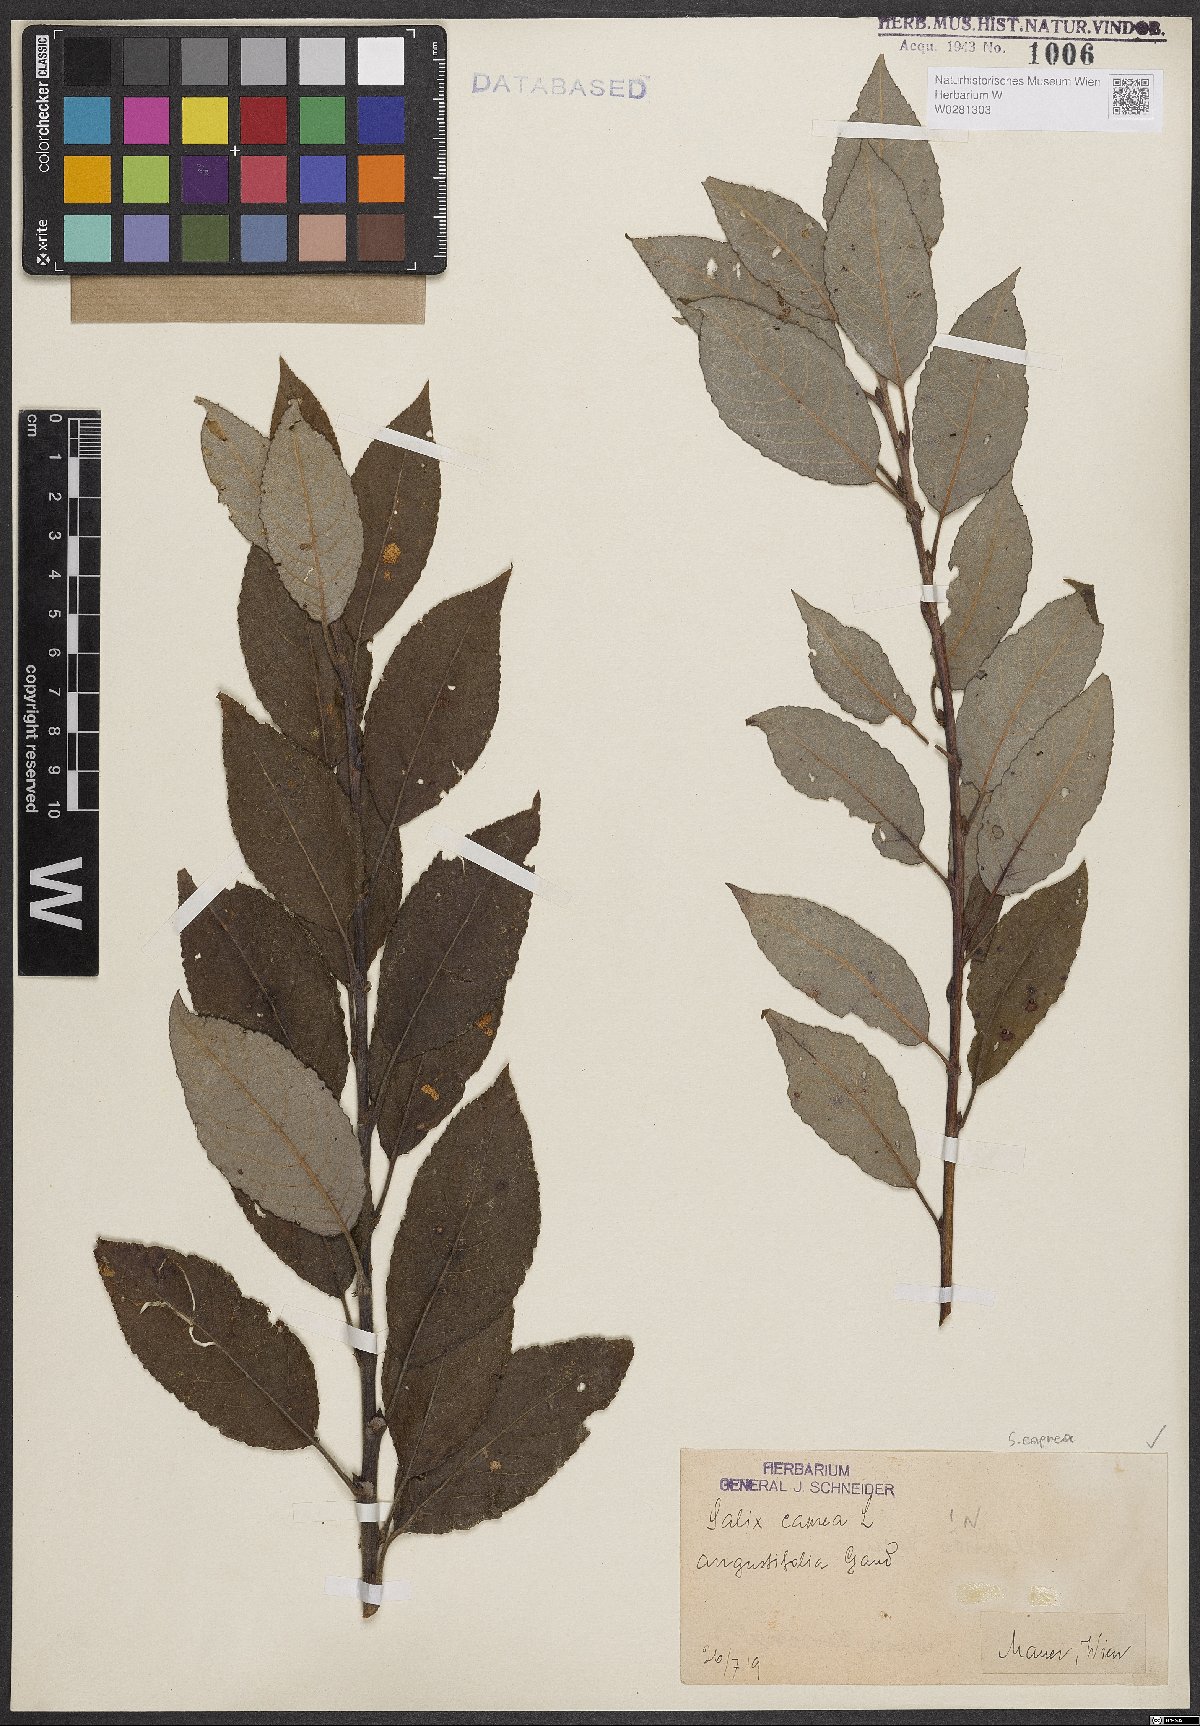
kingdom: Plantae
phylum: Tracheophyta
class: Magnoliopsida
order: Malpighiales
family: Salicaceae
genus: Salix
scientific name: Salix caprea
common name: Goat willow
